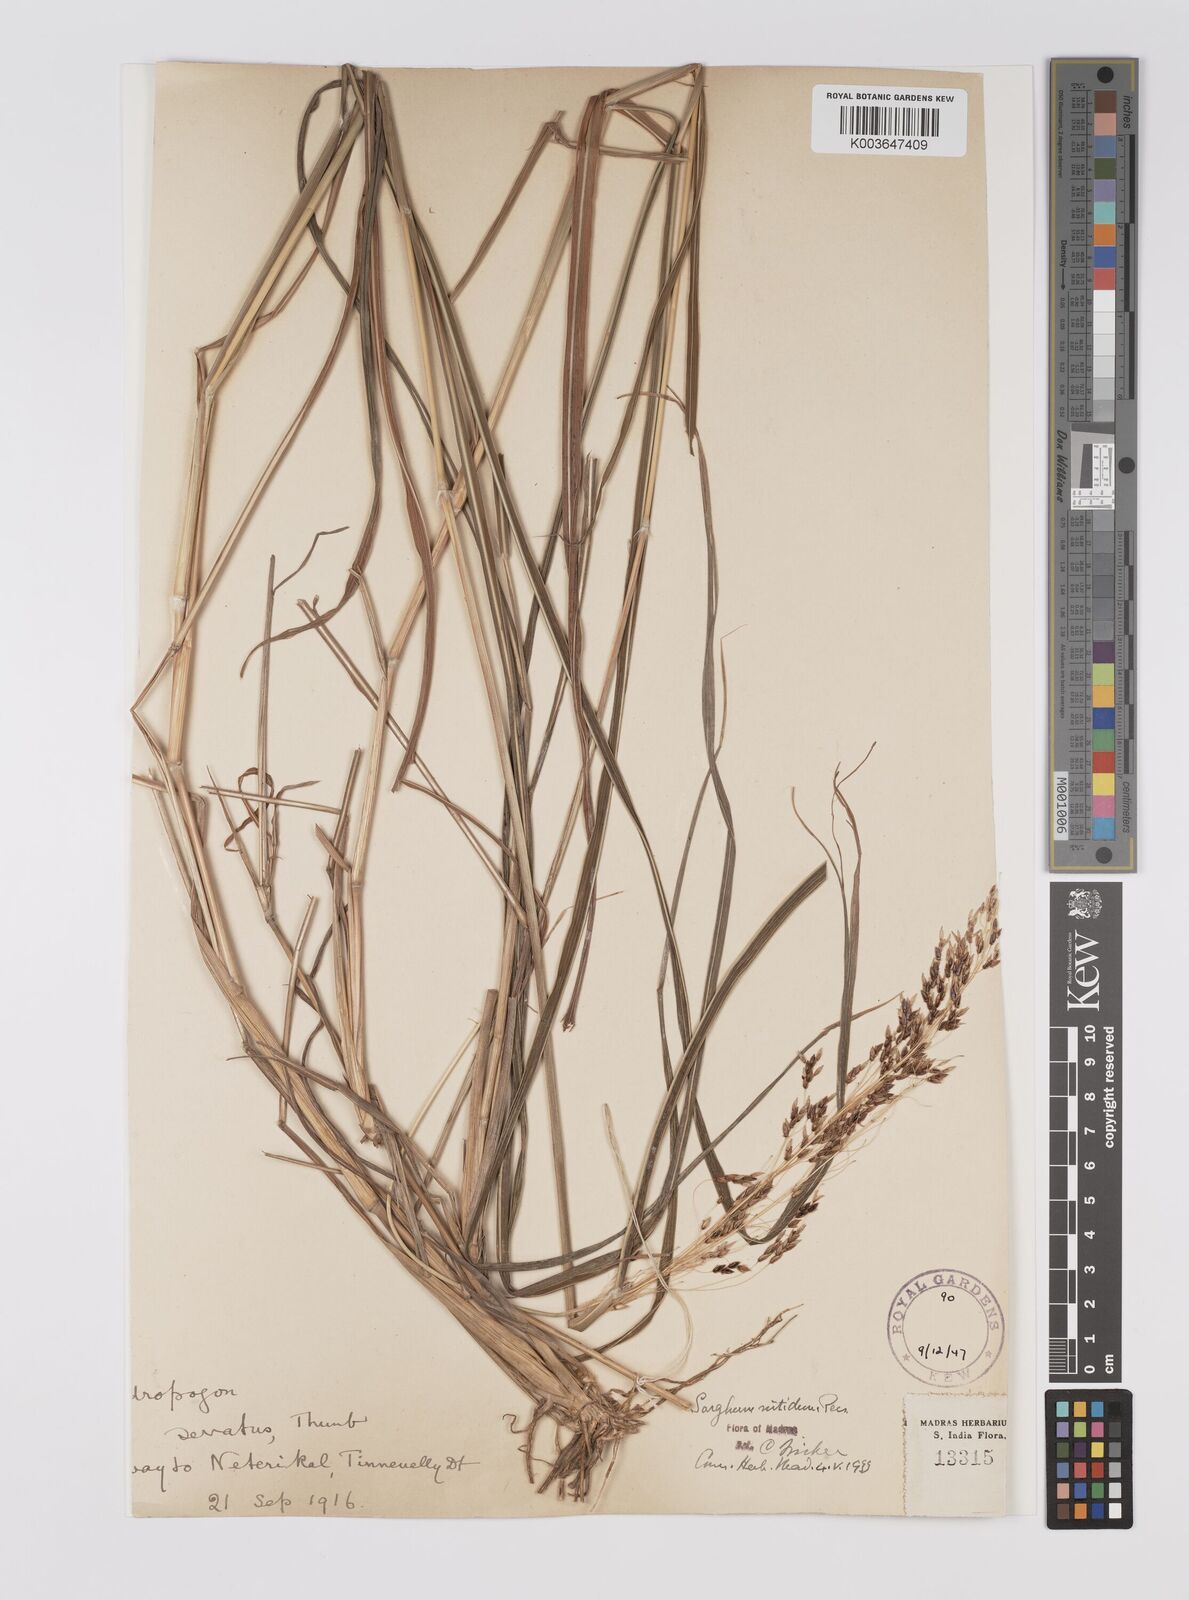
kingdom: Plantae
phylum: Tracheophyta
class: Liliopsida
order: Poales
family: Poaceae
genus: Sorghum
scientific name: Sorghum nitidum
